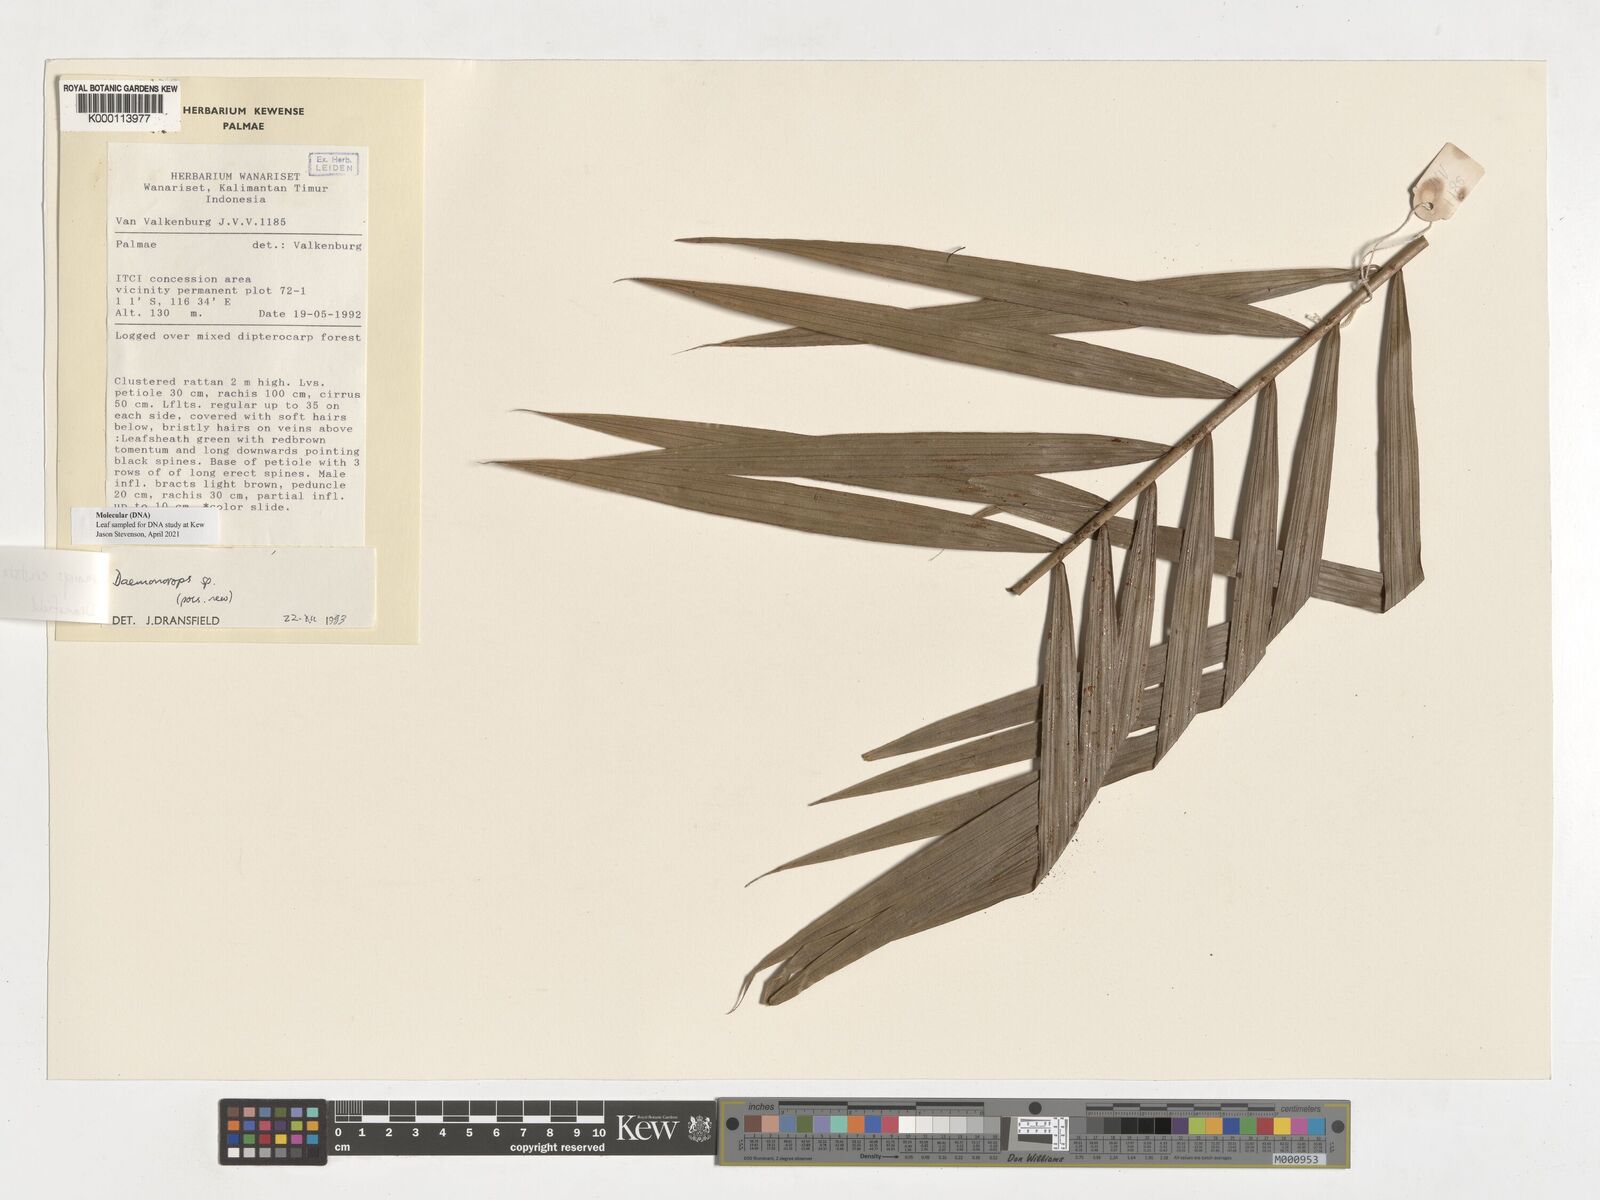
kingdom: Plantae
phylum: Tracheophyta
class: Liliopsida
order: Arecales
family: Arecaceae
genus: Calamus
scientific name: Calamus cristatus
